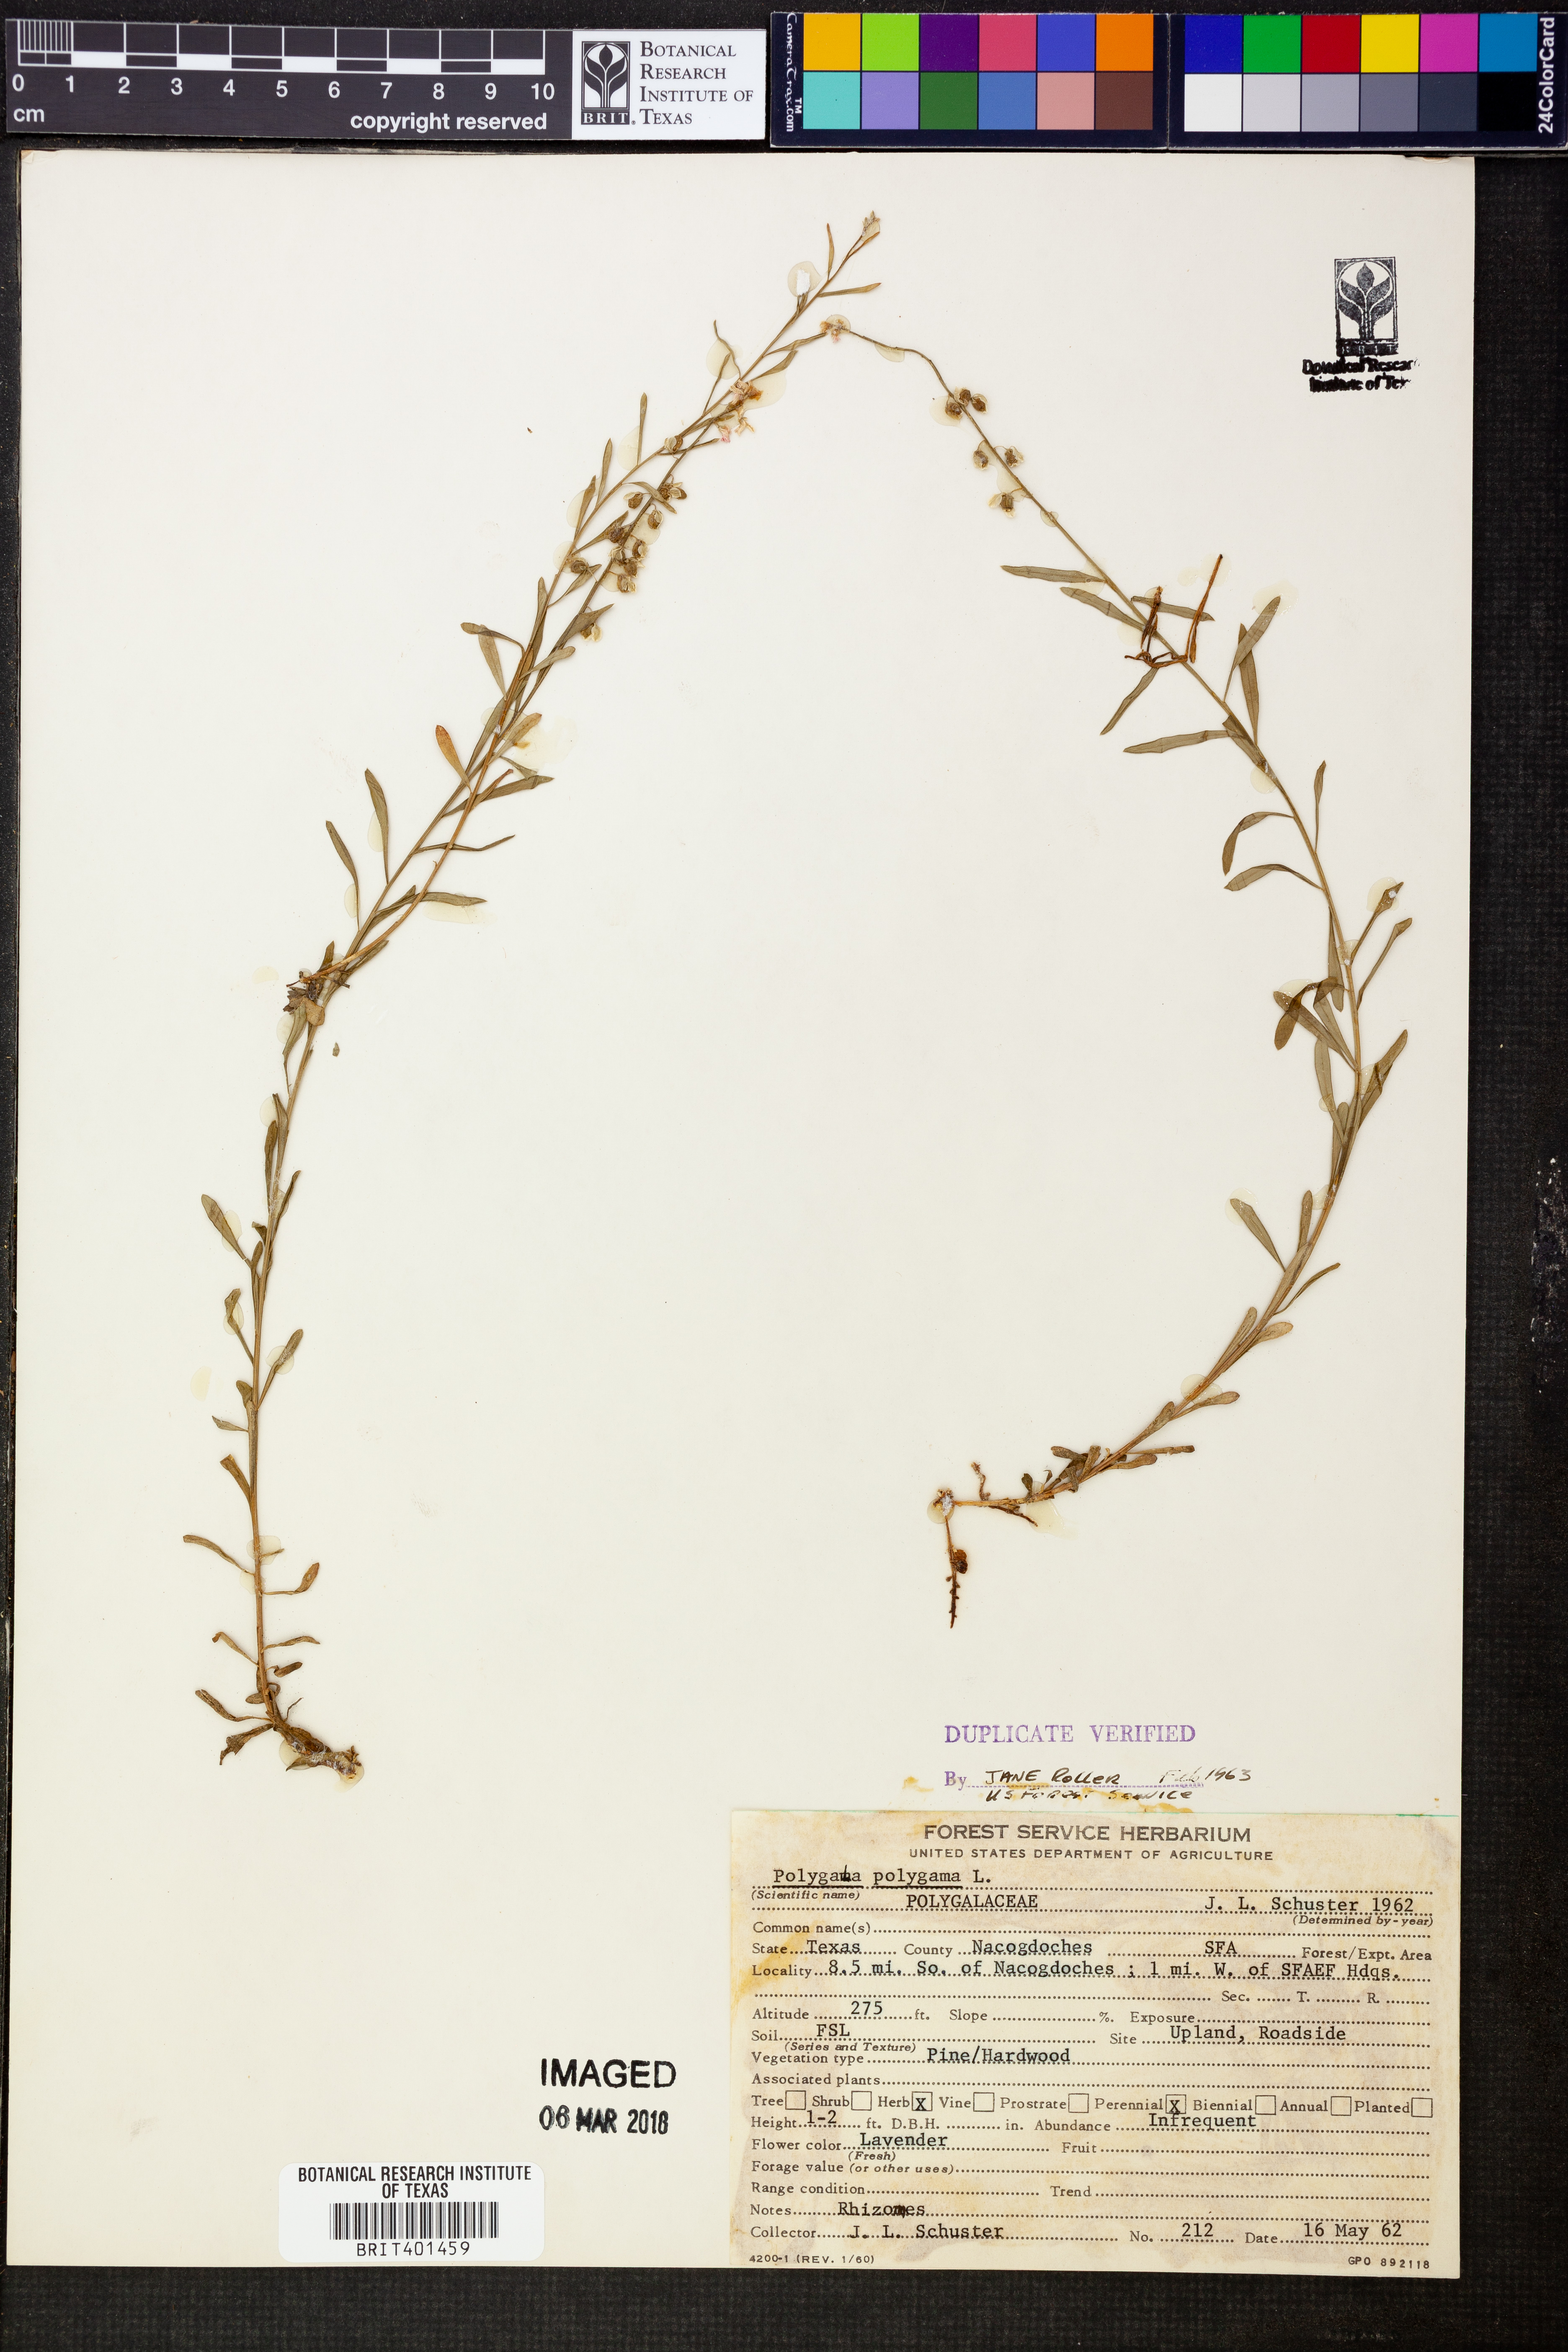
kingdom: Plantae
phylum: Tracheophyta
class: Magnoliopsida
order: Fabales
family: Polygalaceae
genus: Polygala
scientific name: Polygala polygama
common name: Bitter milkwort
